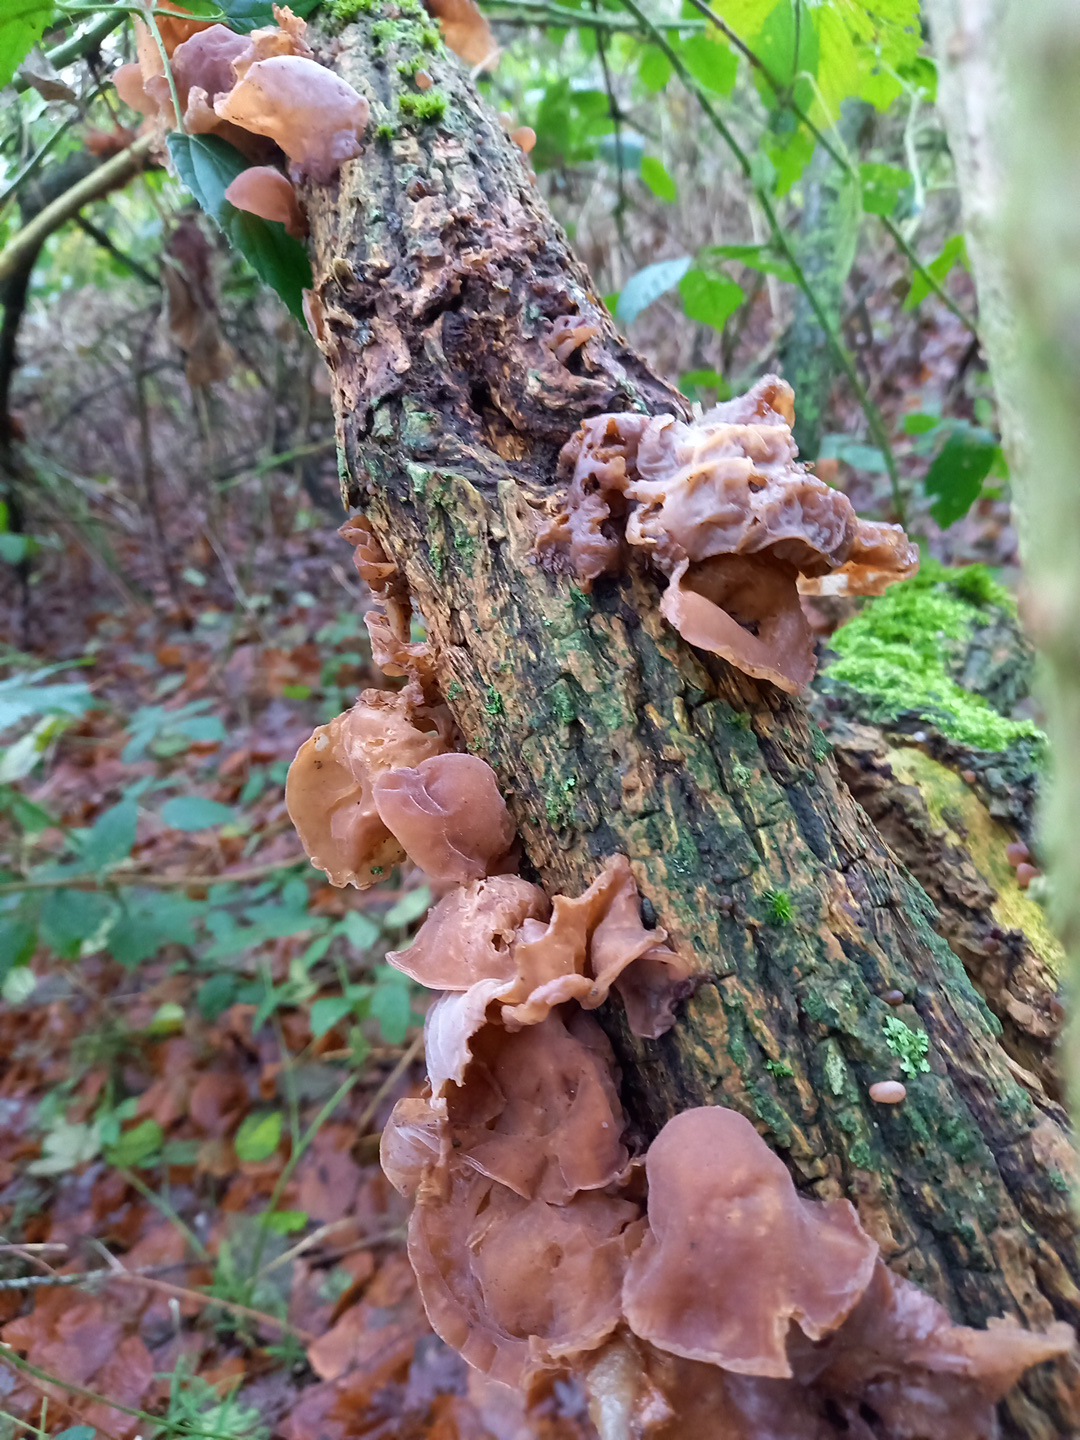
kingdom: Fungi
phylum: Basidiomycota
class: Agaricomycetes
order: Auriculariales
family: Auriculariaceae
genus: Auricularia
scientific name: Auricularia auricula-judae
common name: almindelig judasøre
